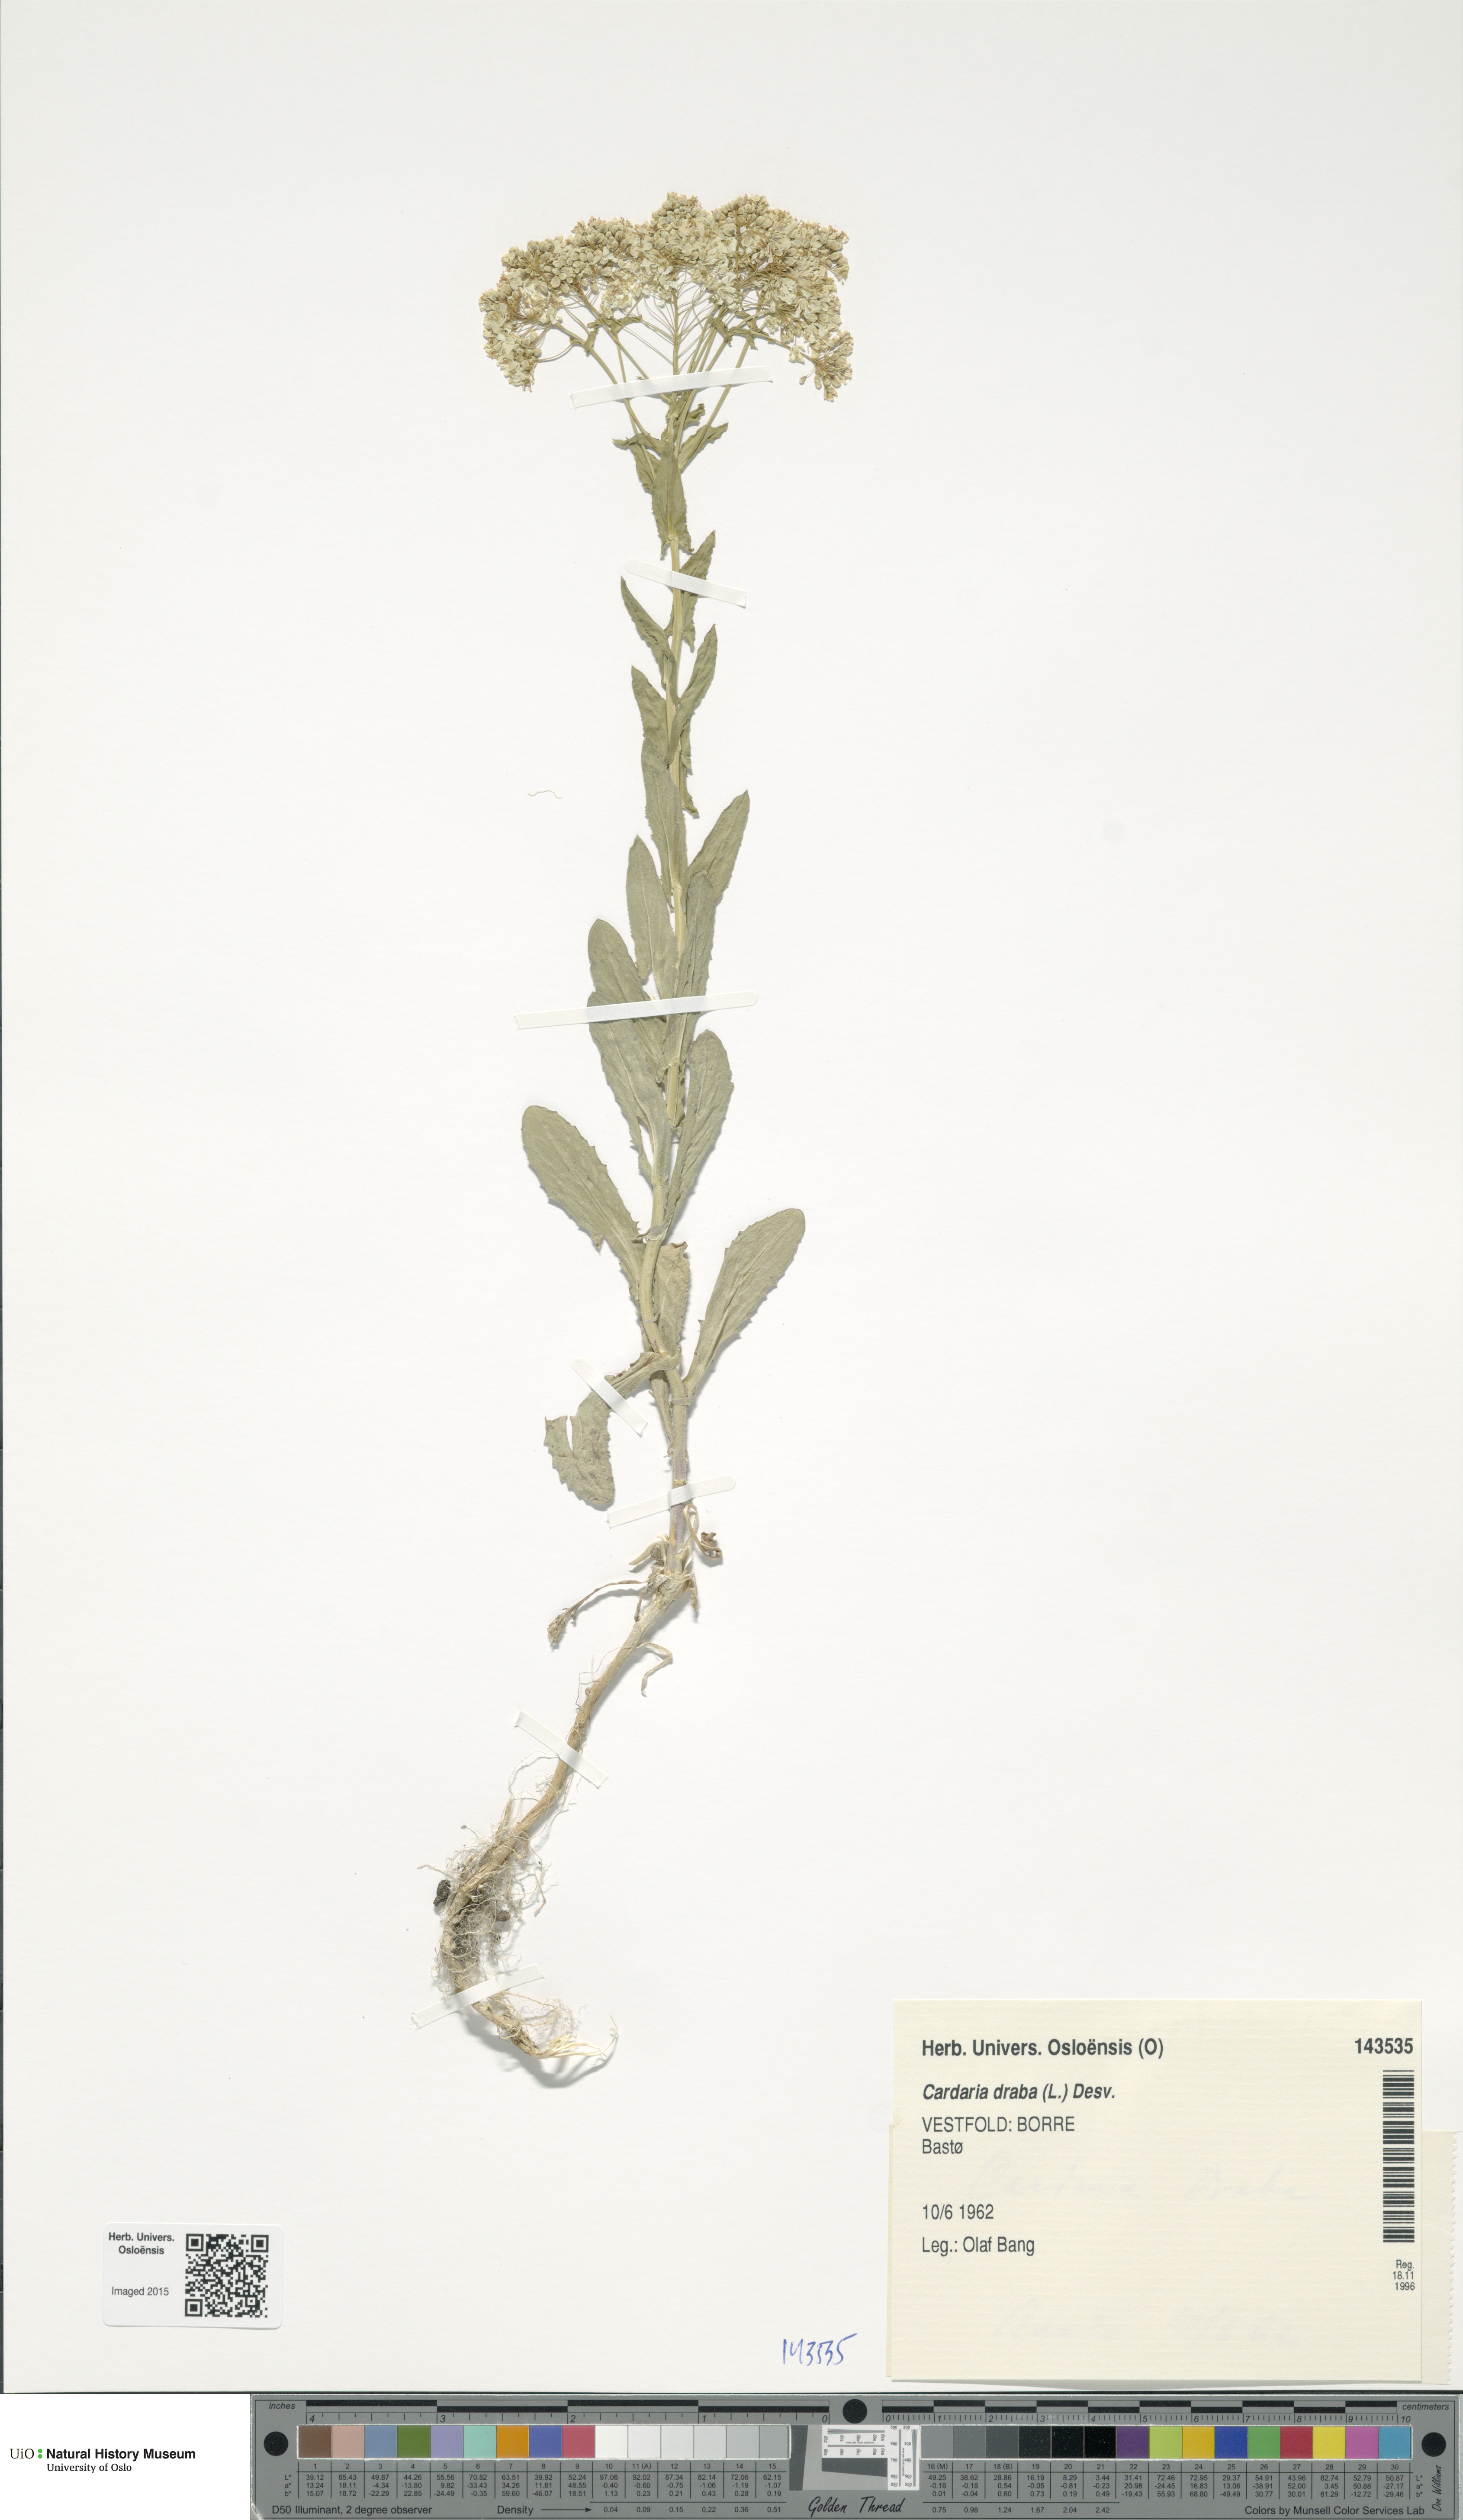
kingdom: Plantae
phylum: Tracheophyta
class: Magnoliopsida
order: Brassicales
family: Brassicaceae
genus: Lepidium
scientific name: Lepidium draba
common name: Hoary cress
